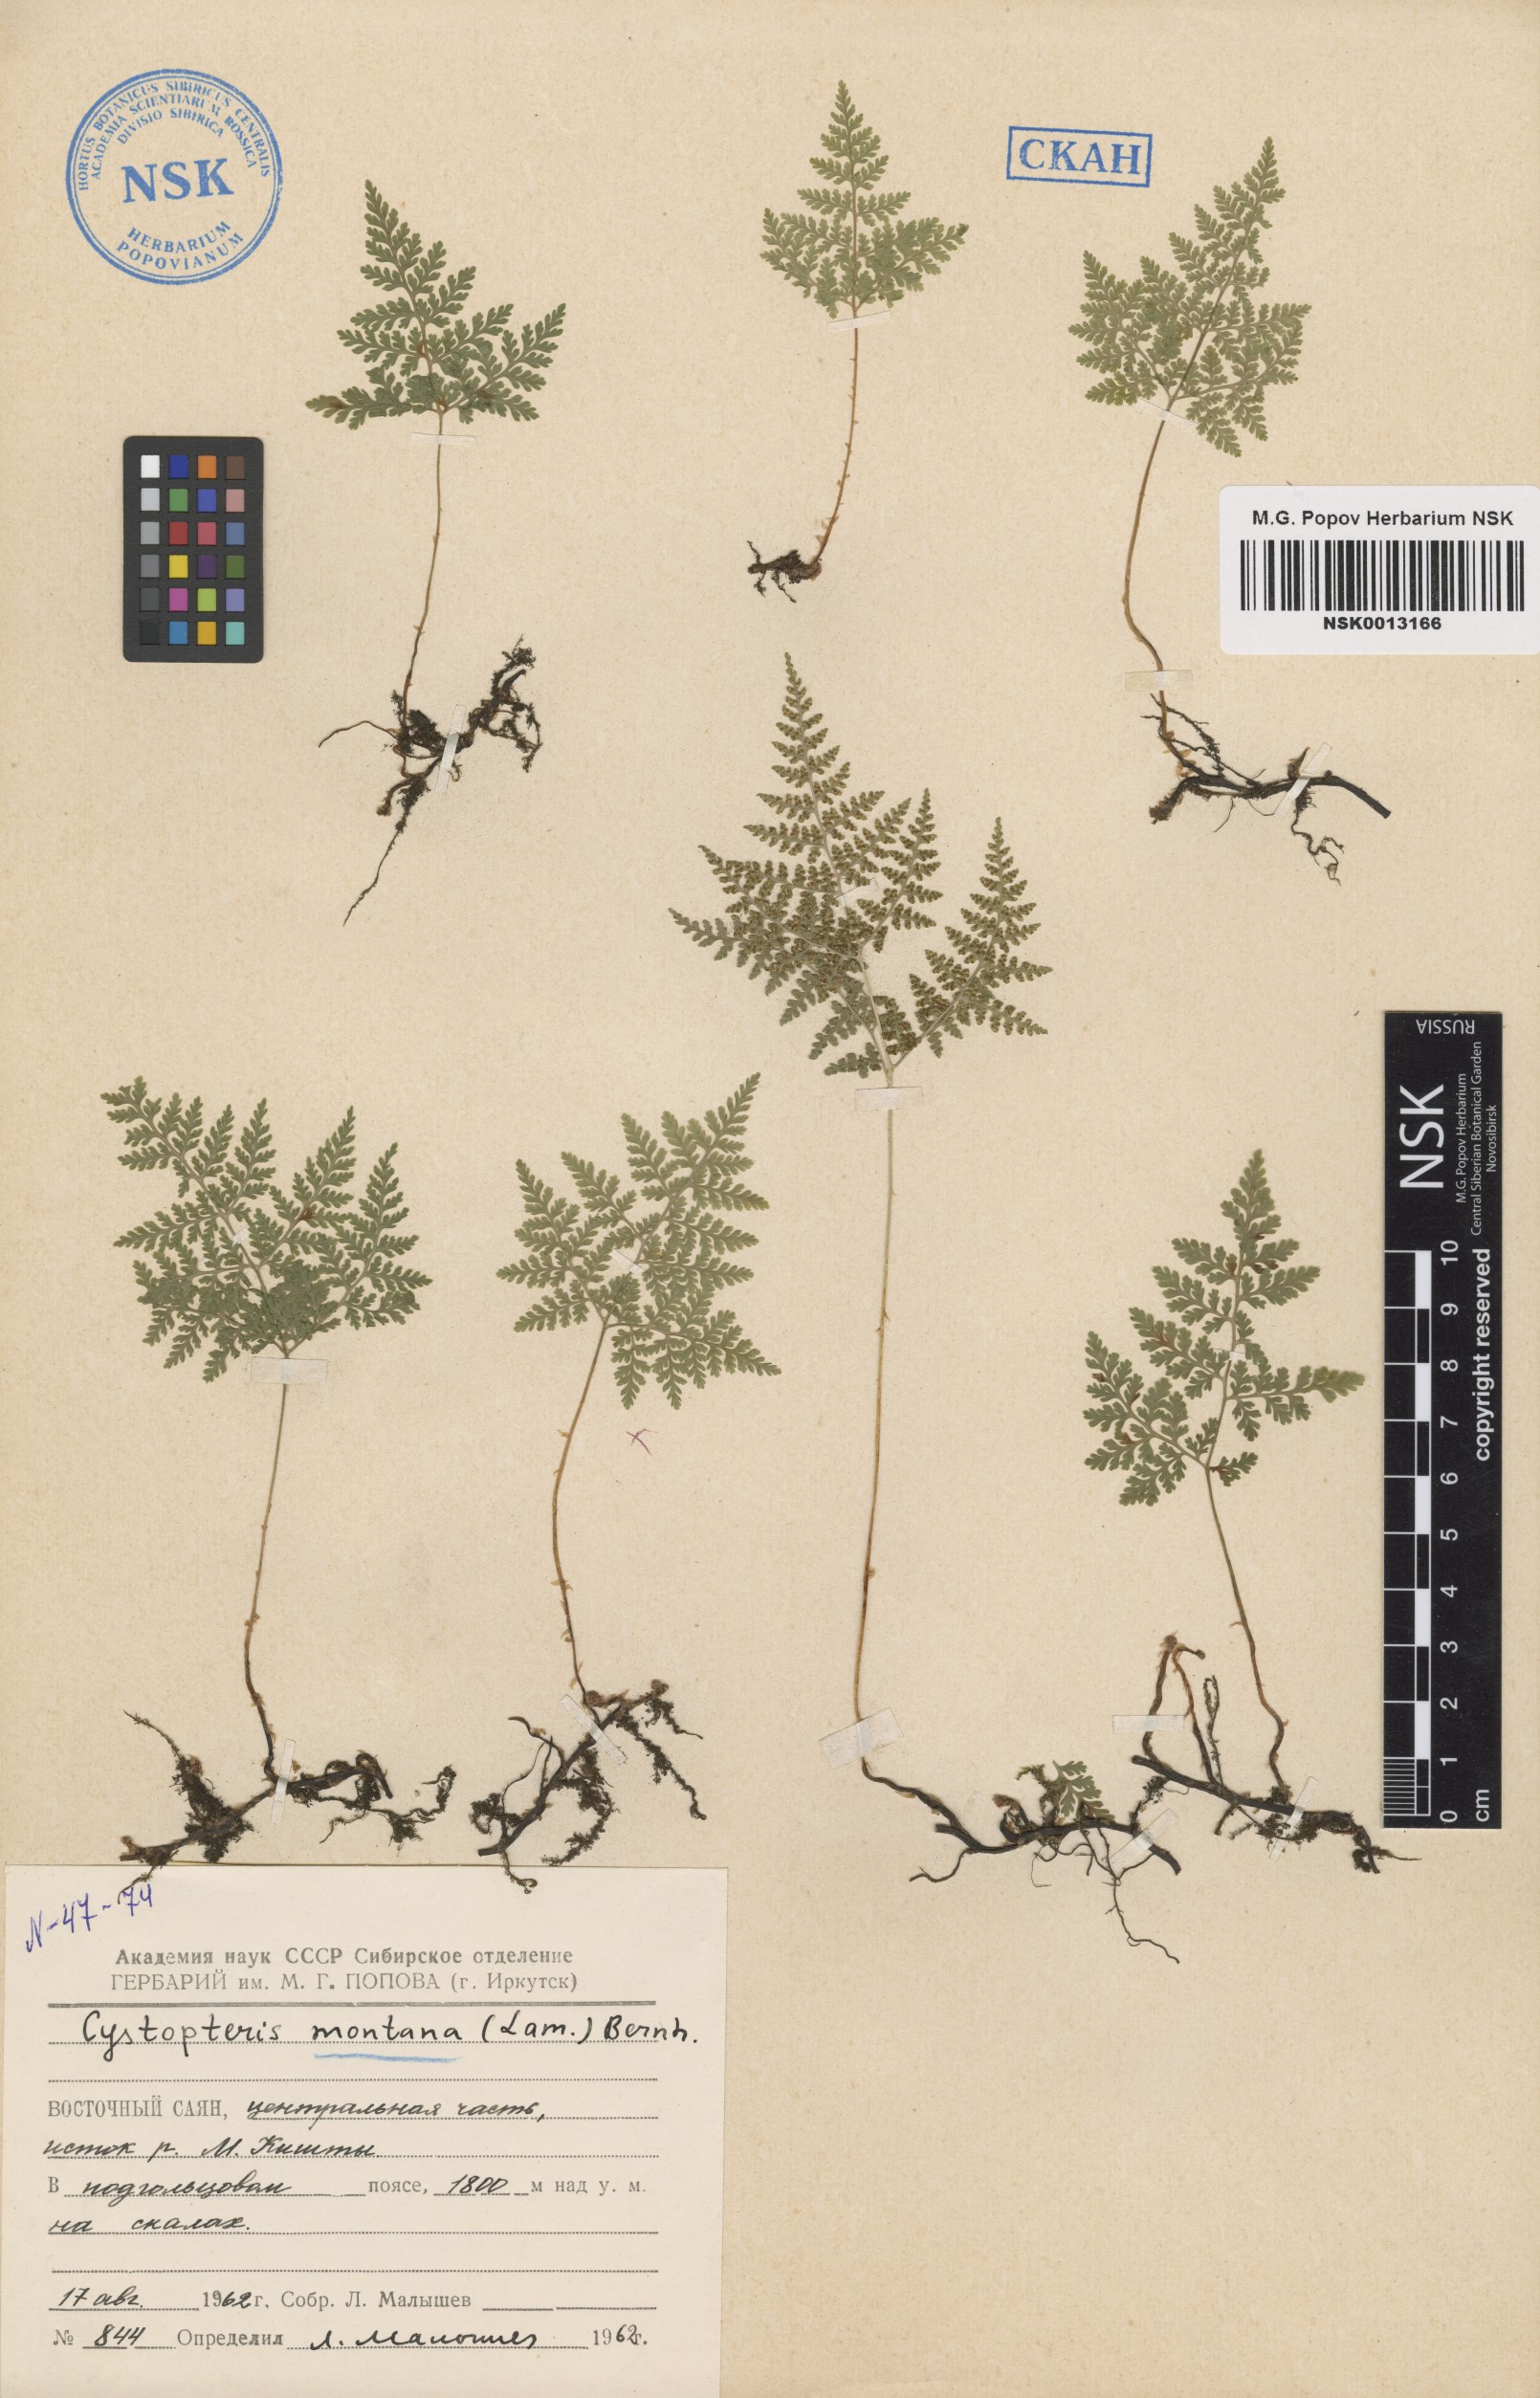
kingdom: Plantae
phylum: Tracheophyta
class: Polypodiopsida
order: Polypodiales
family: Cystopteridaceae
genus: Cystopteris
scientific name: Cystopteris montana
